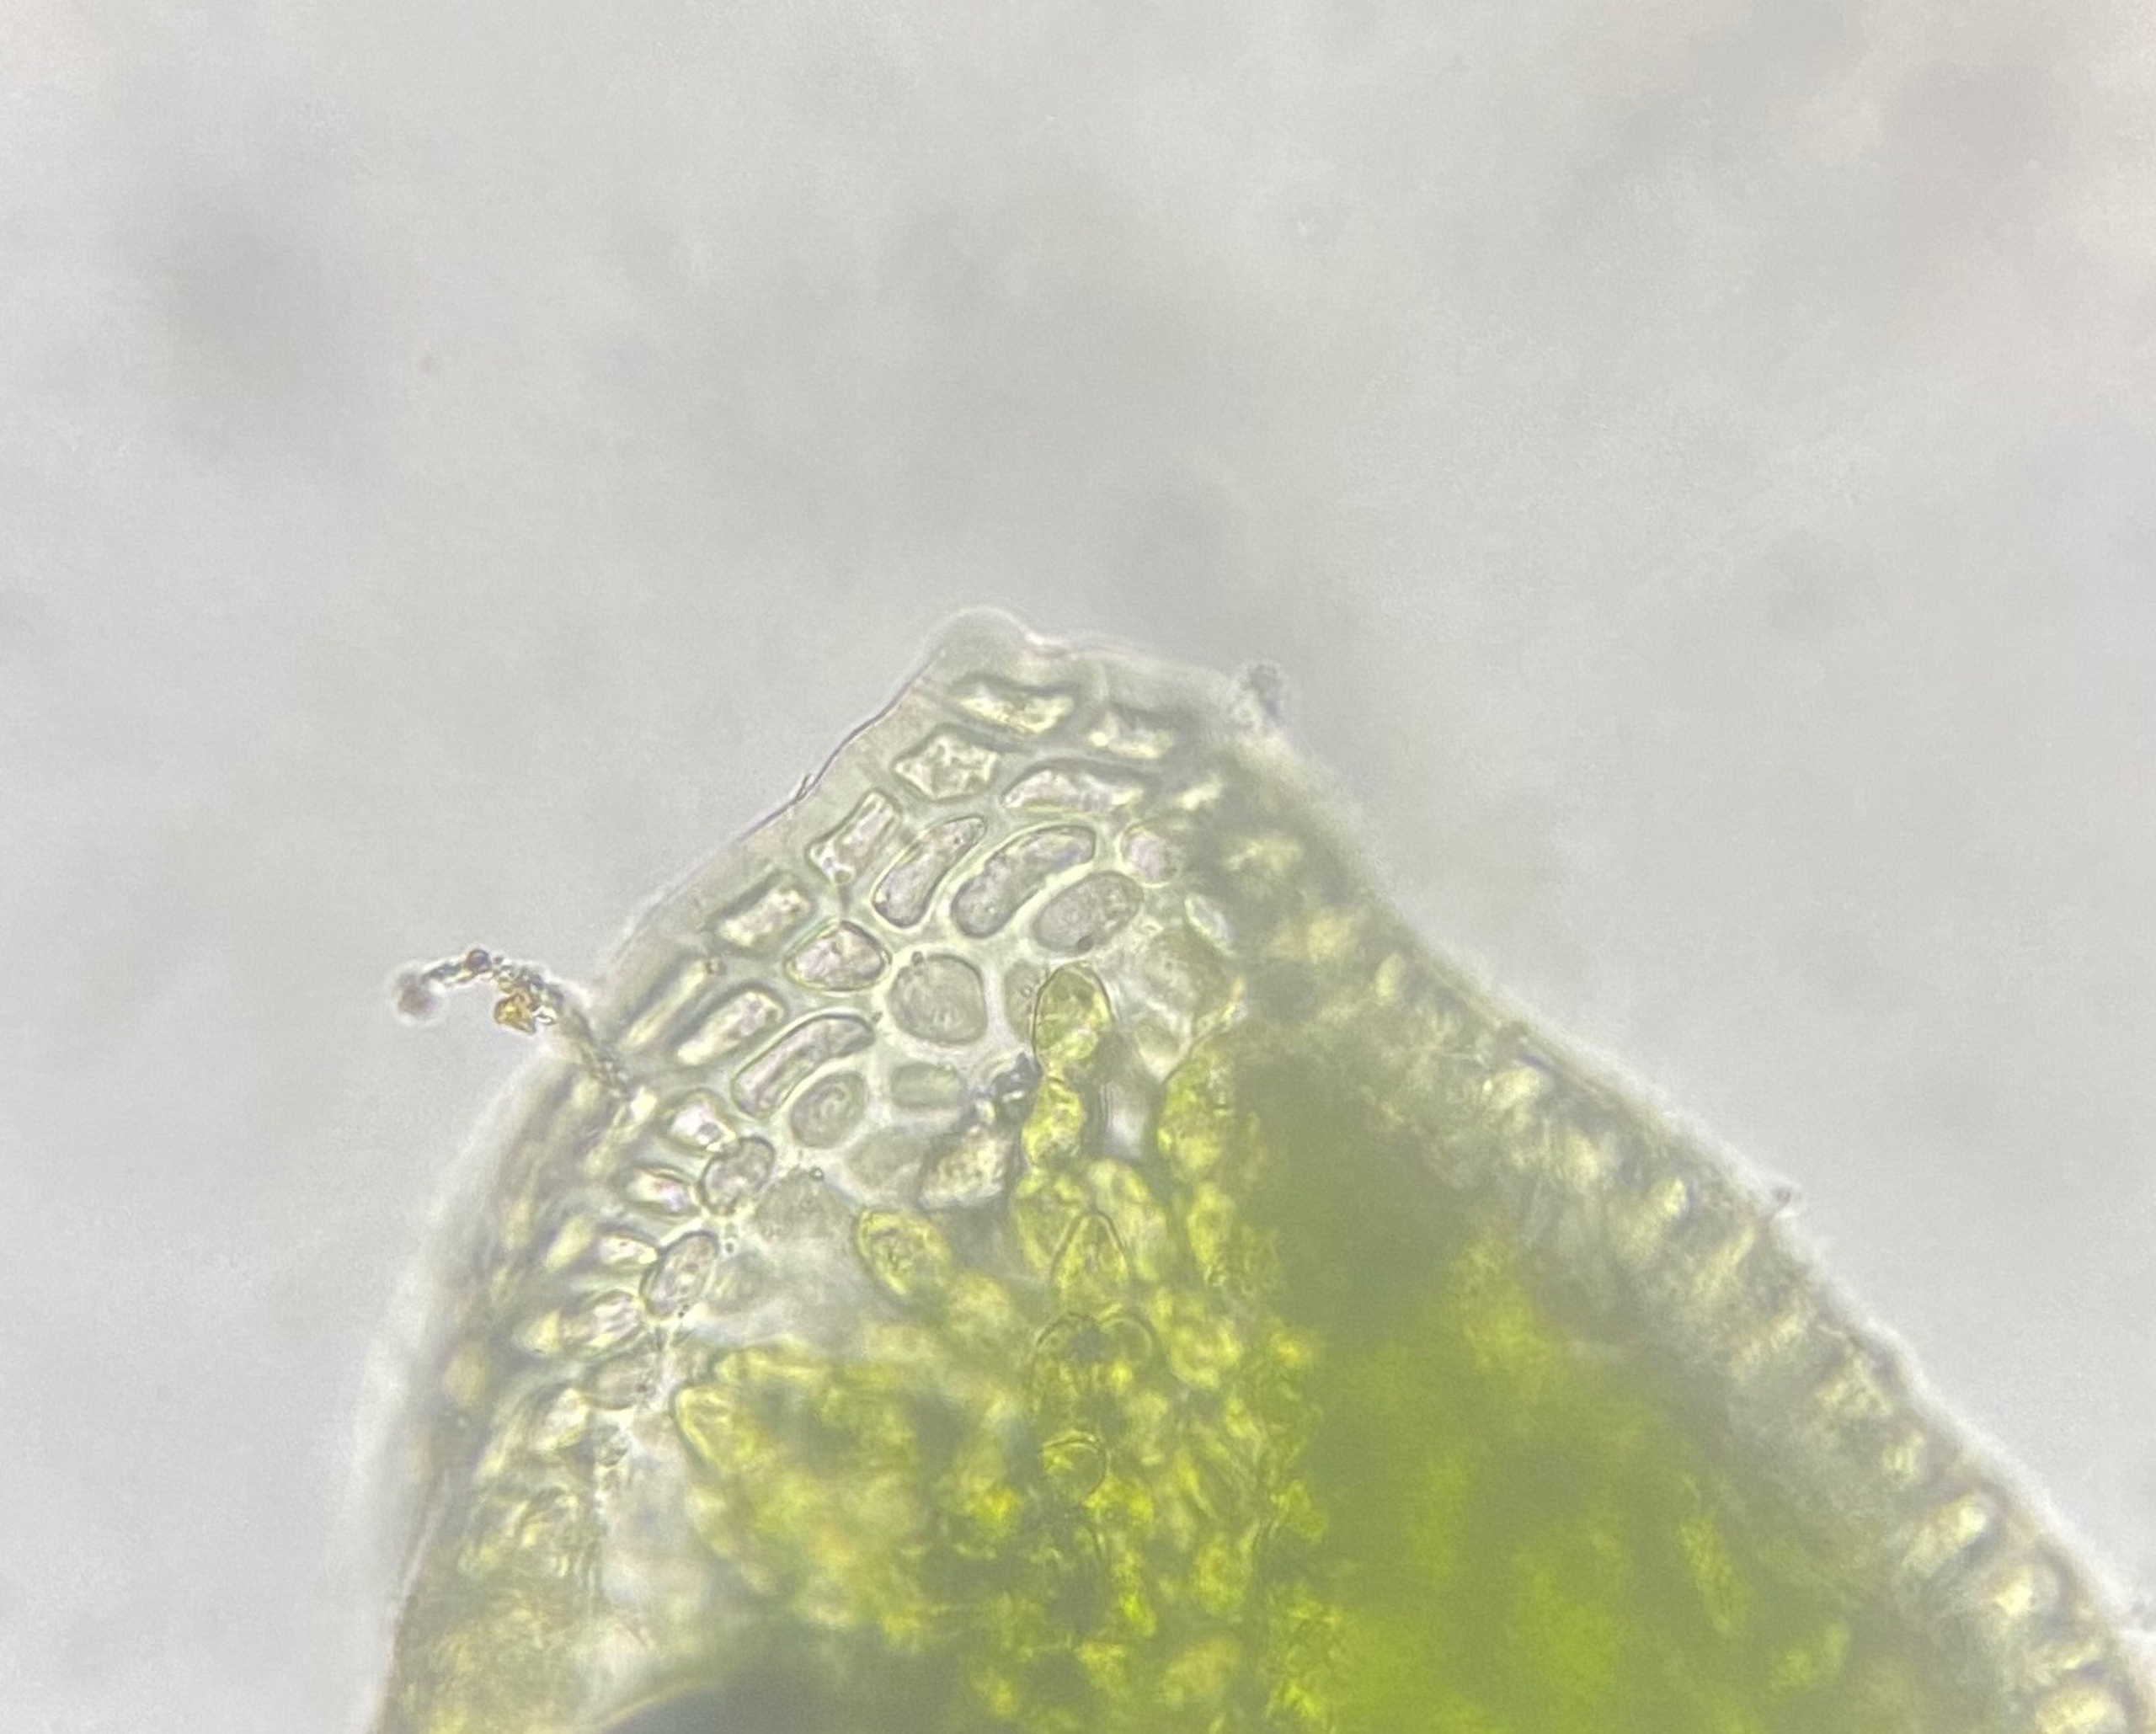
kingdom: Plantae
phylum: Bryophyta
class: Bryopsida
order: Pottiales
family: Pottiaceae
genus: Aloina
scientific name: Aloina ambigua
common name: Krog-tøffelmos
